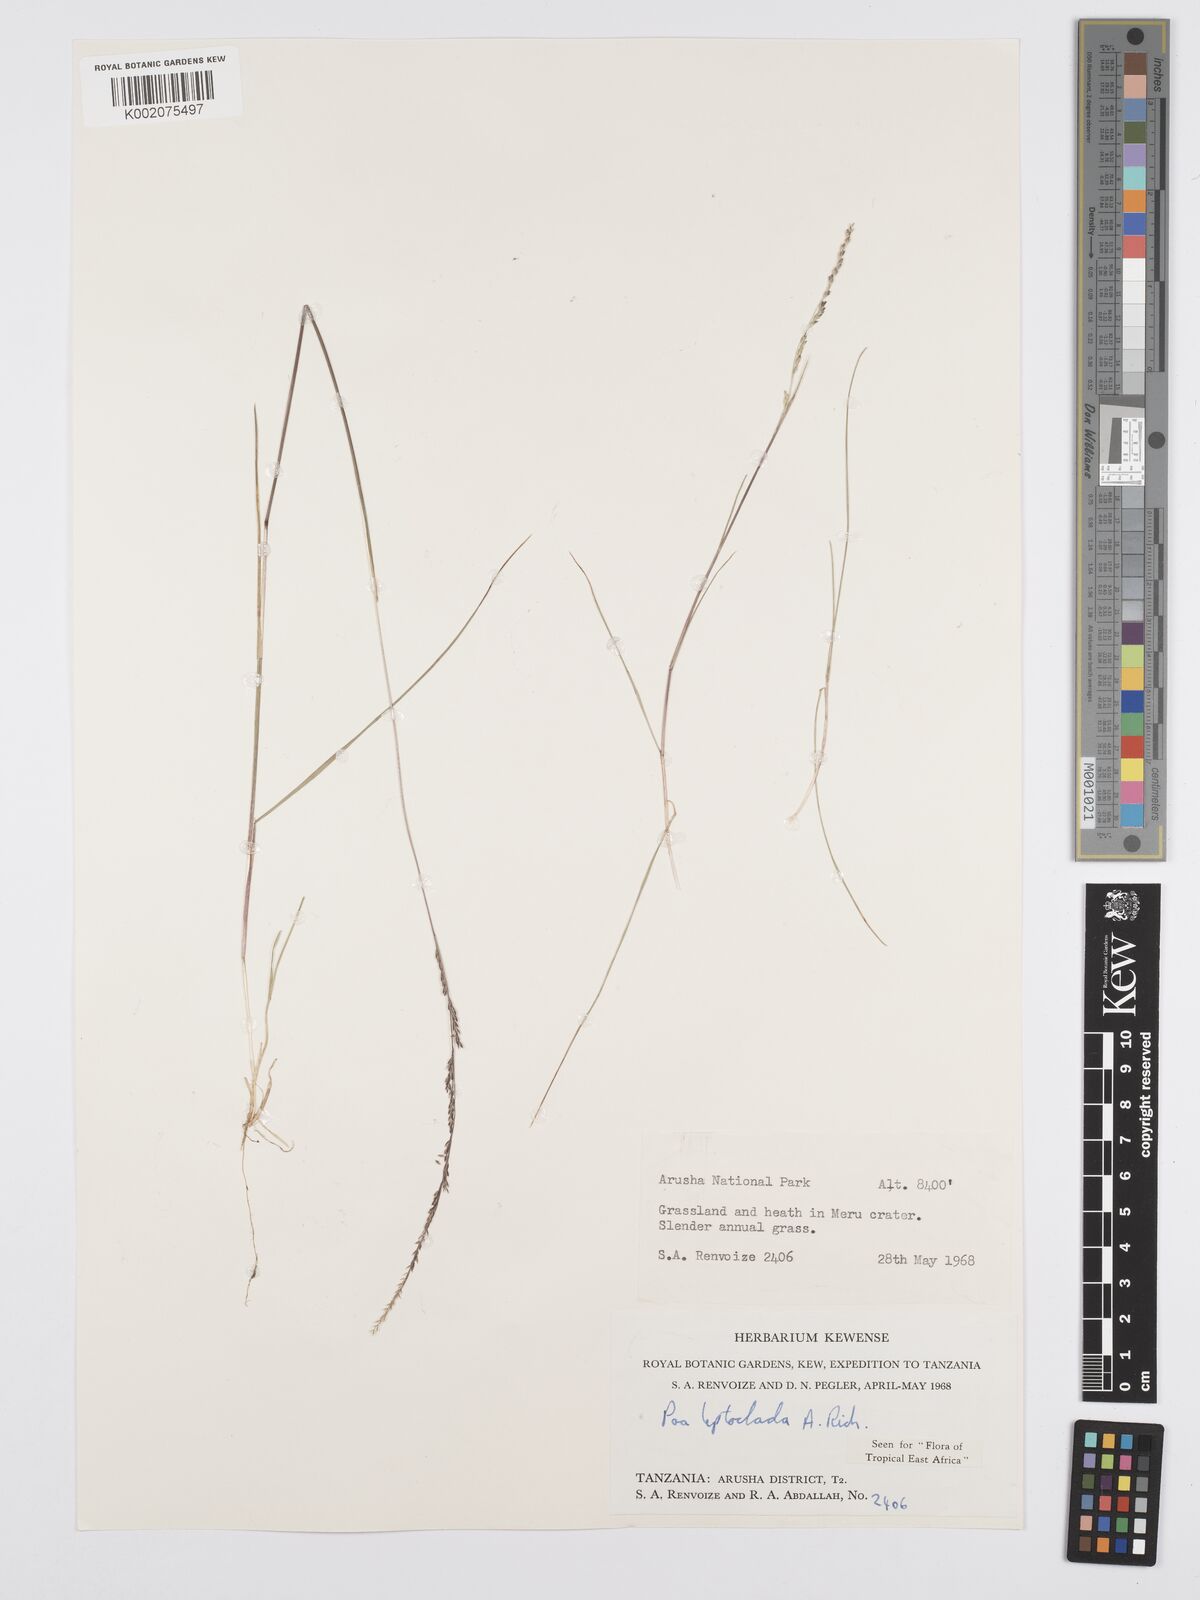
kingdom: Plantae
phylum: Tracheophyta
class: Liliopsida
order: Poales
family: Poaceae
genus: Poa
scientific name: Poa leptoclada
